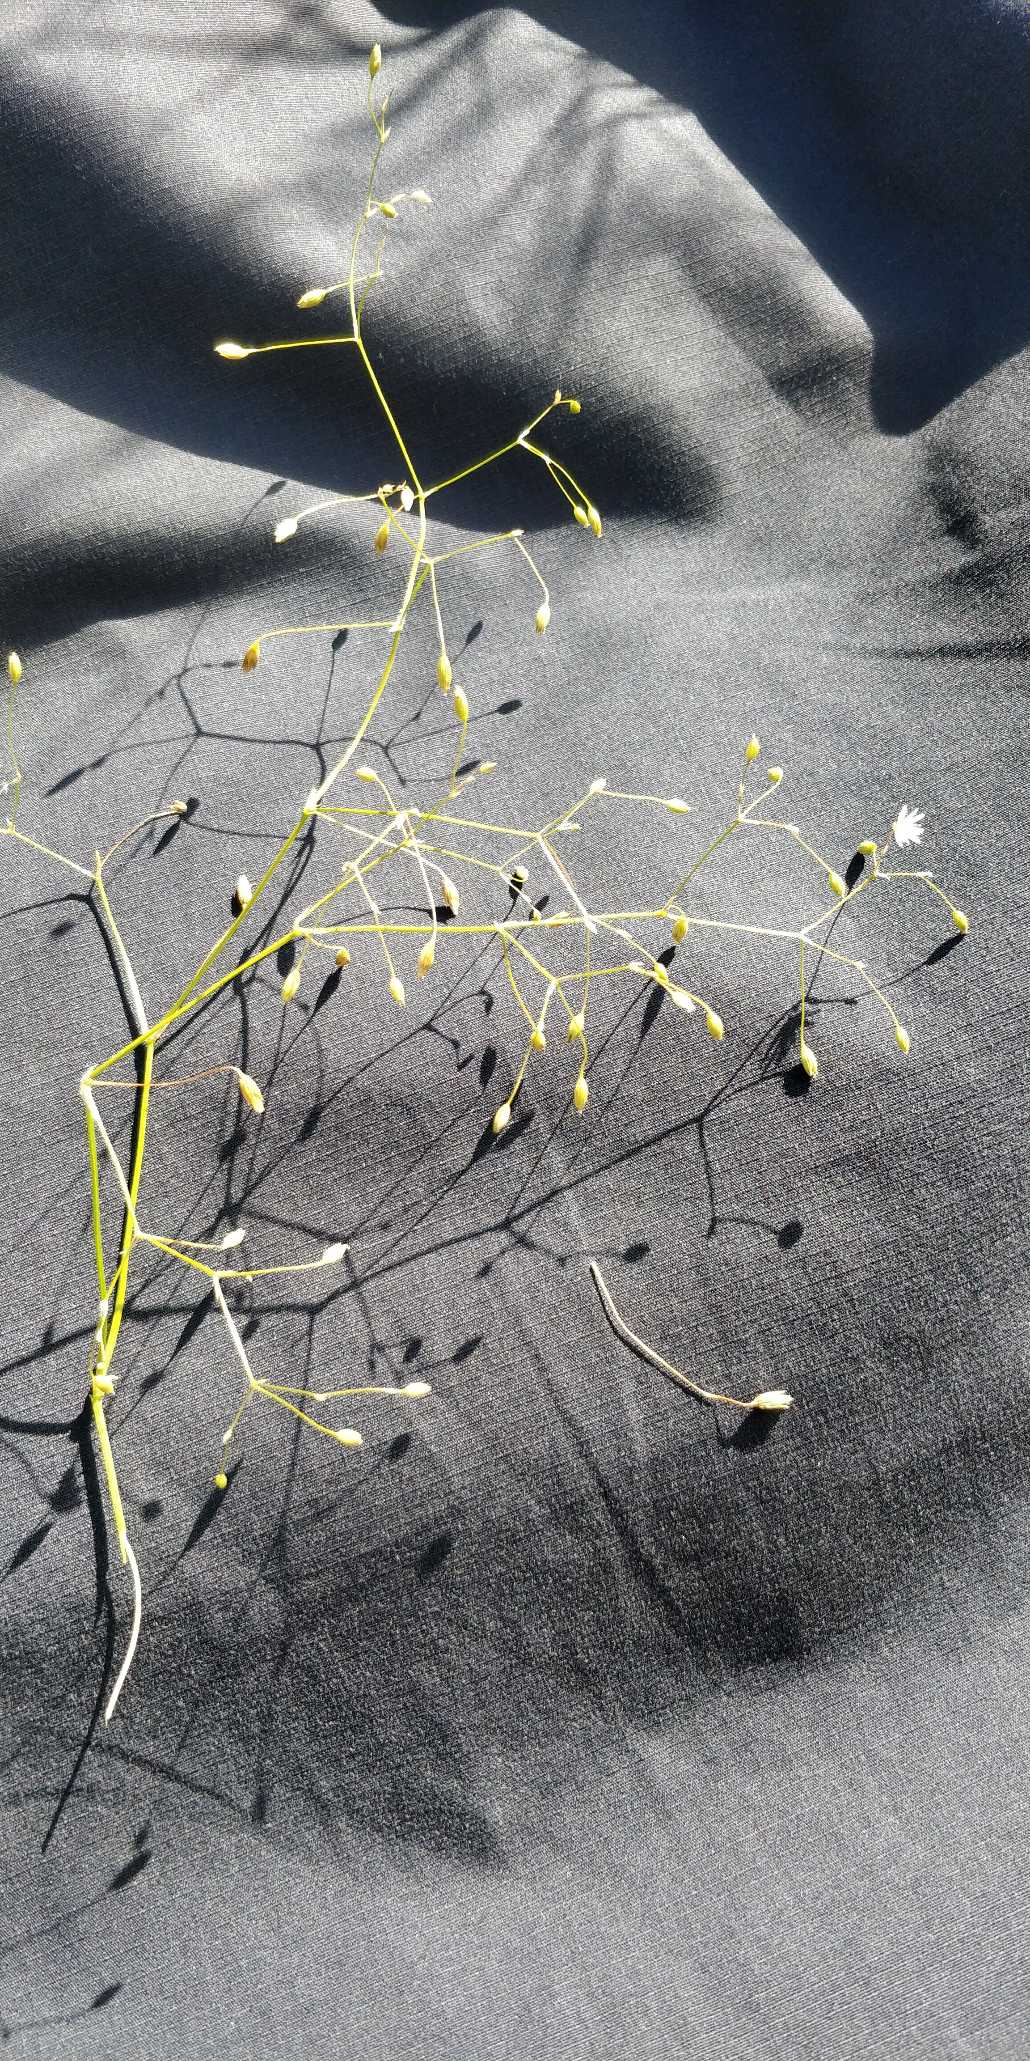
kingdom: Plantae
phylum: Tracheophyta
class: Magnoliopsida
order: Caryophyllales
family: Caryophyllaceae
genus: Stellaria
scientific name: Stellaria graminea
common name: Græsbladet fladstjerne
